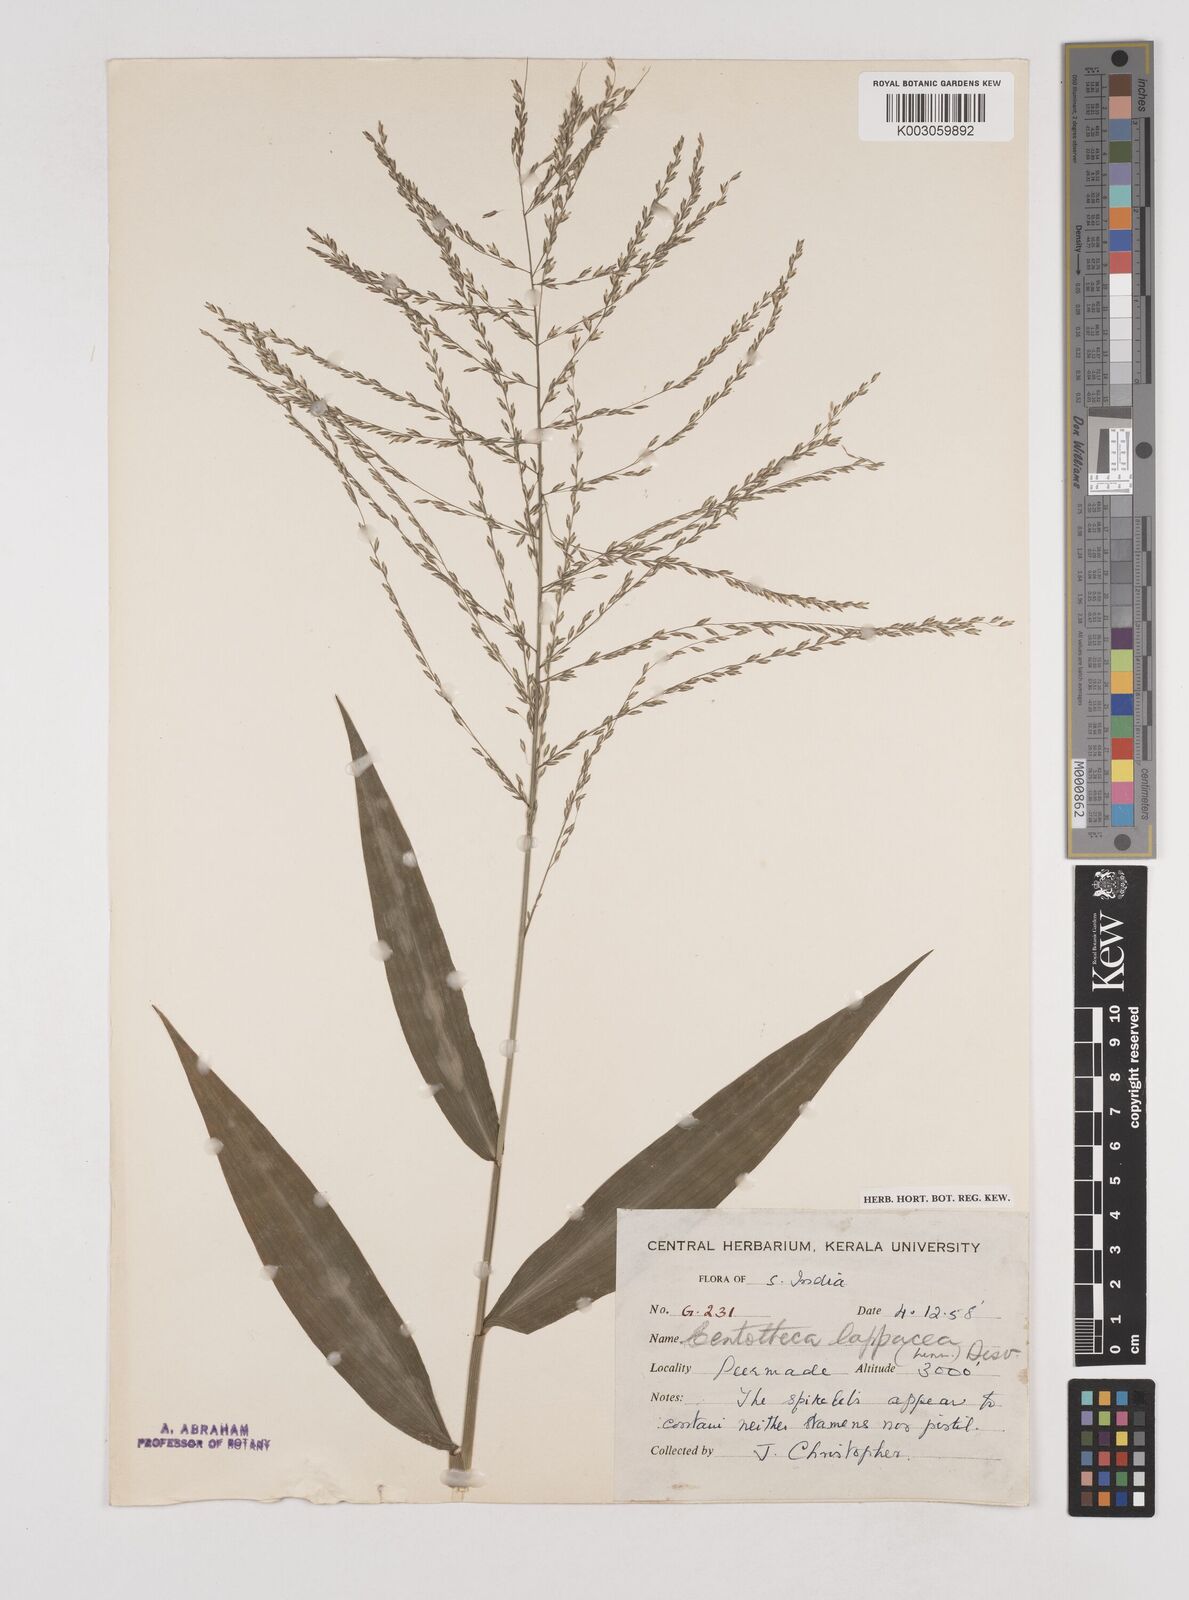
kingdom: Plantae
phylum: Tracheophyta
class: Liliopsida
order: Poales
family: Poaceae
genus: Centotheca
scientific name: Centotheca lappacea
